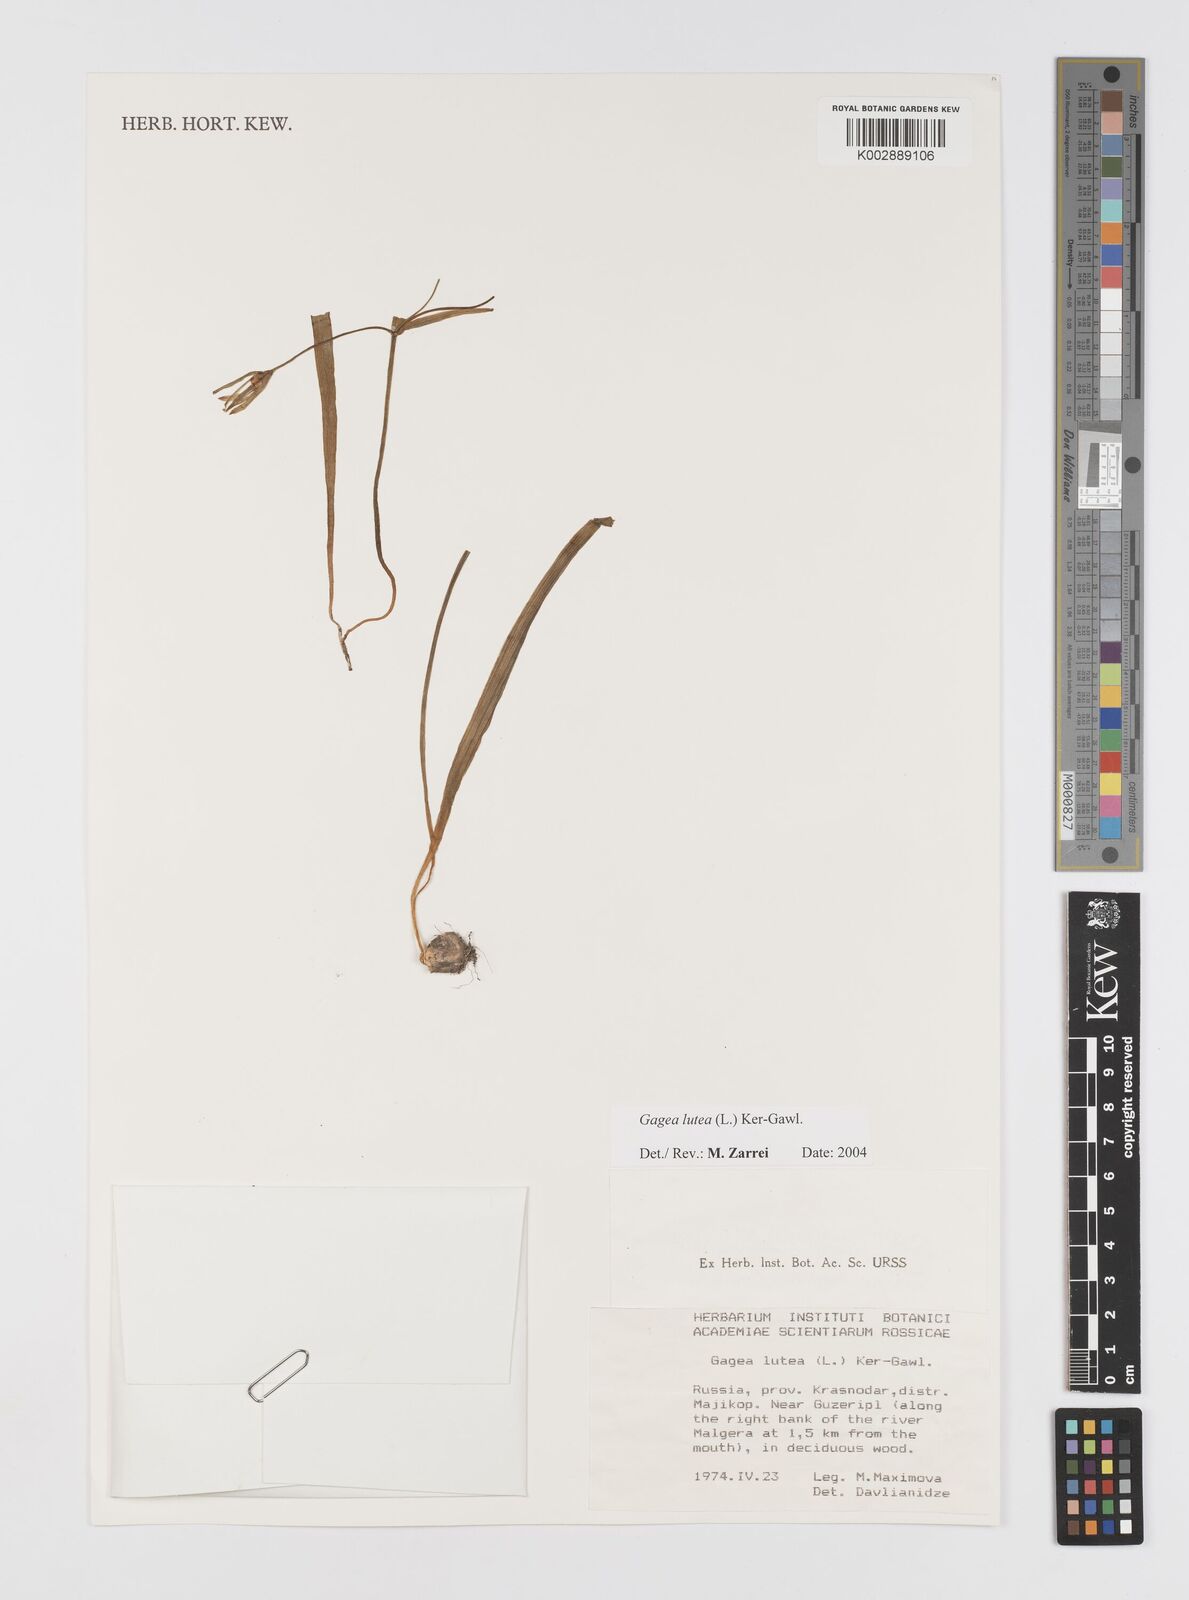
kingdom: Plantae
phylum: Tracheophyta
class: Liliopsida
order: Liliales
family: Liliaceae
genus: Gagea
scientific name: Gagea lutea
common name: Yellow star-of-bethlehem
